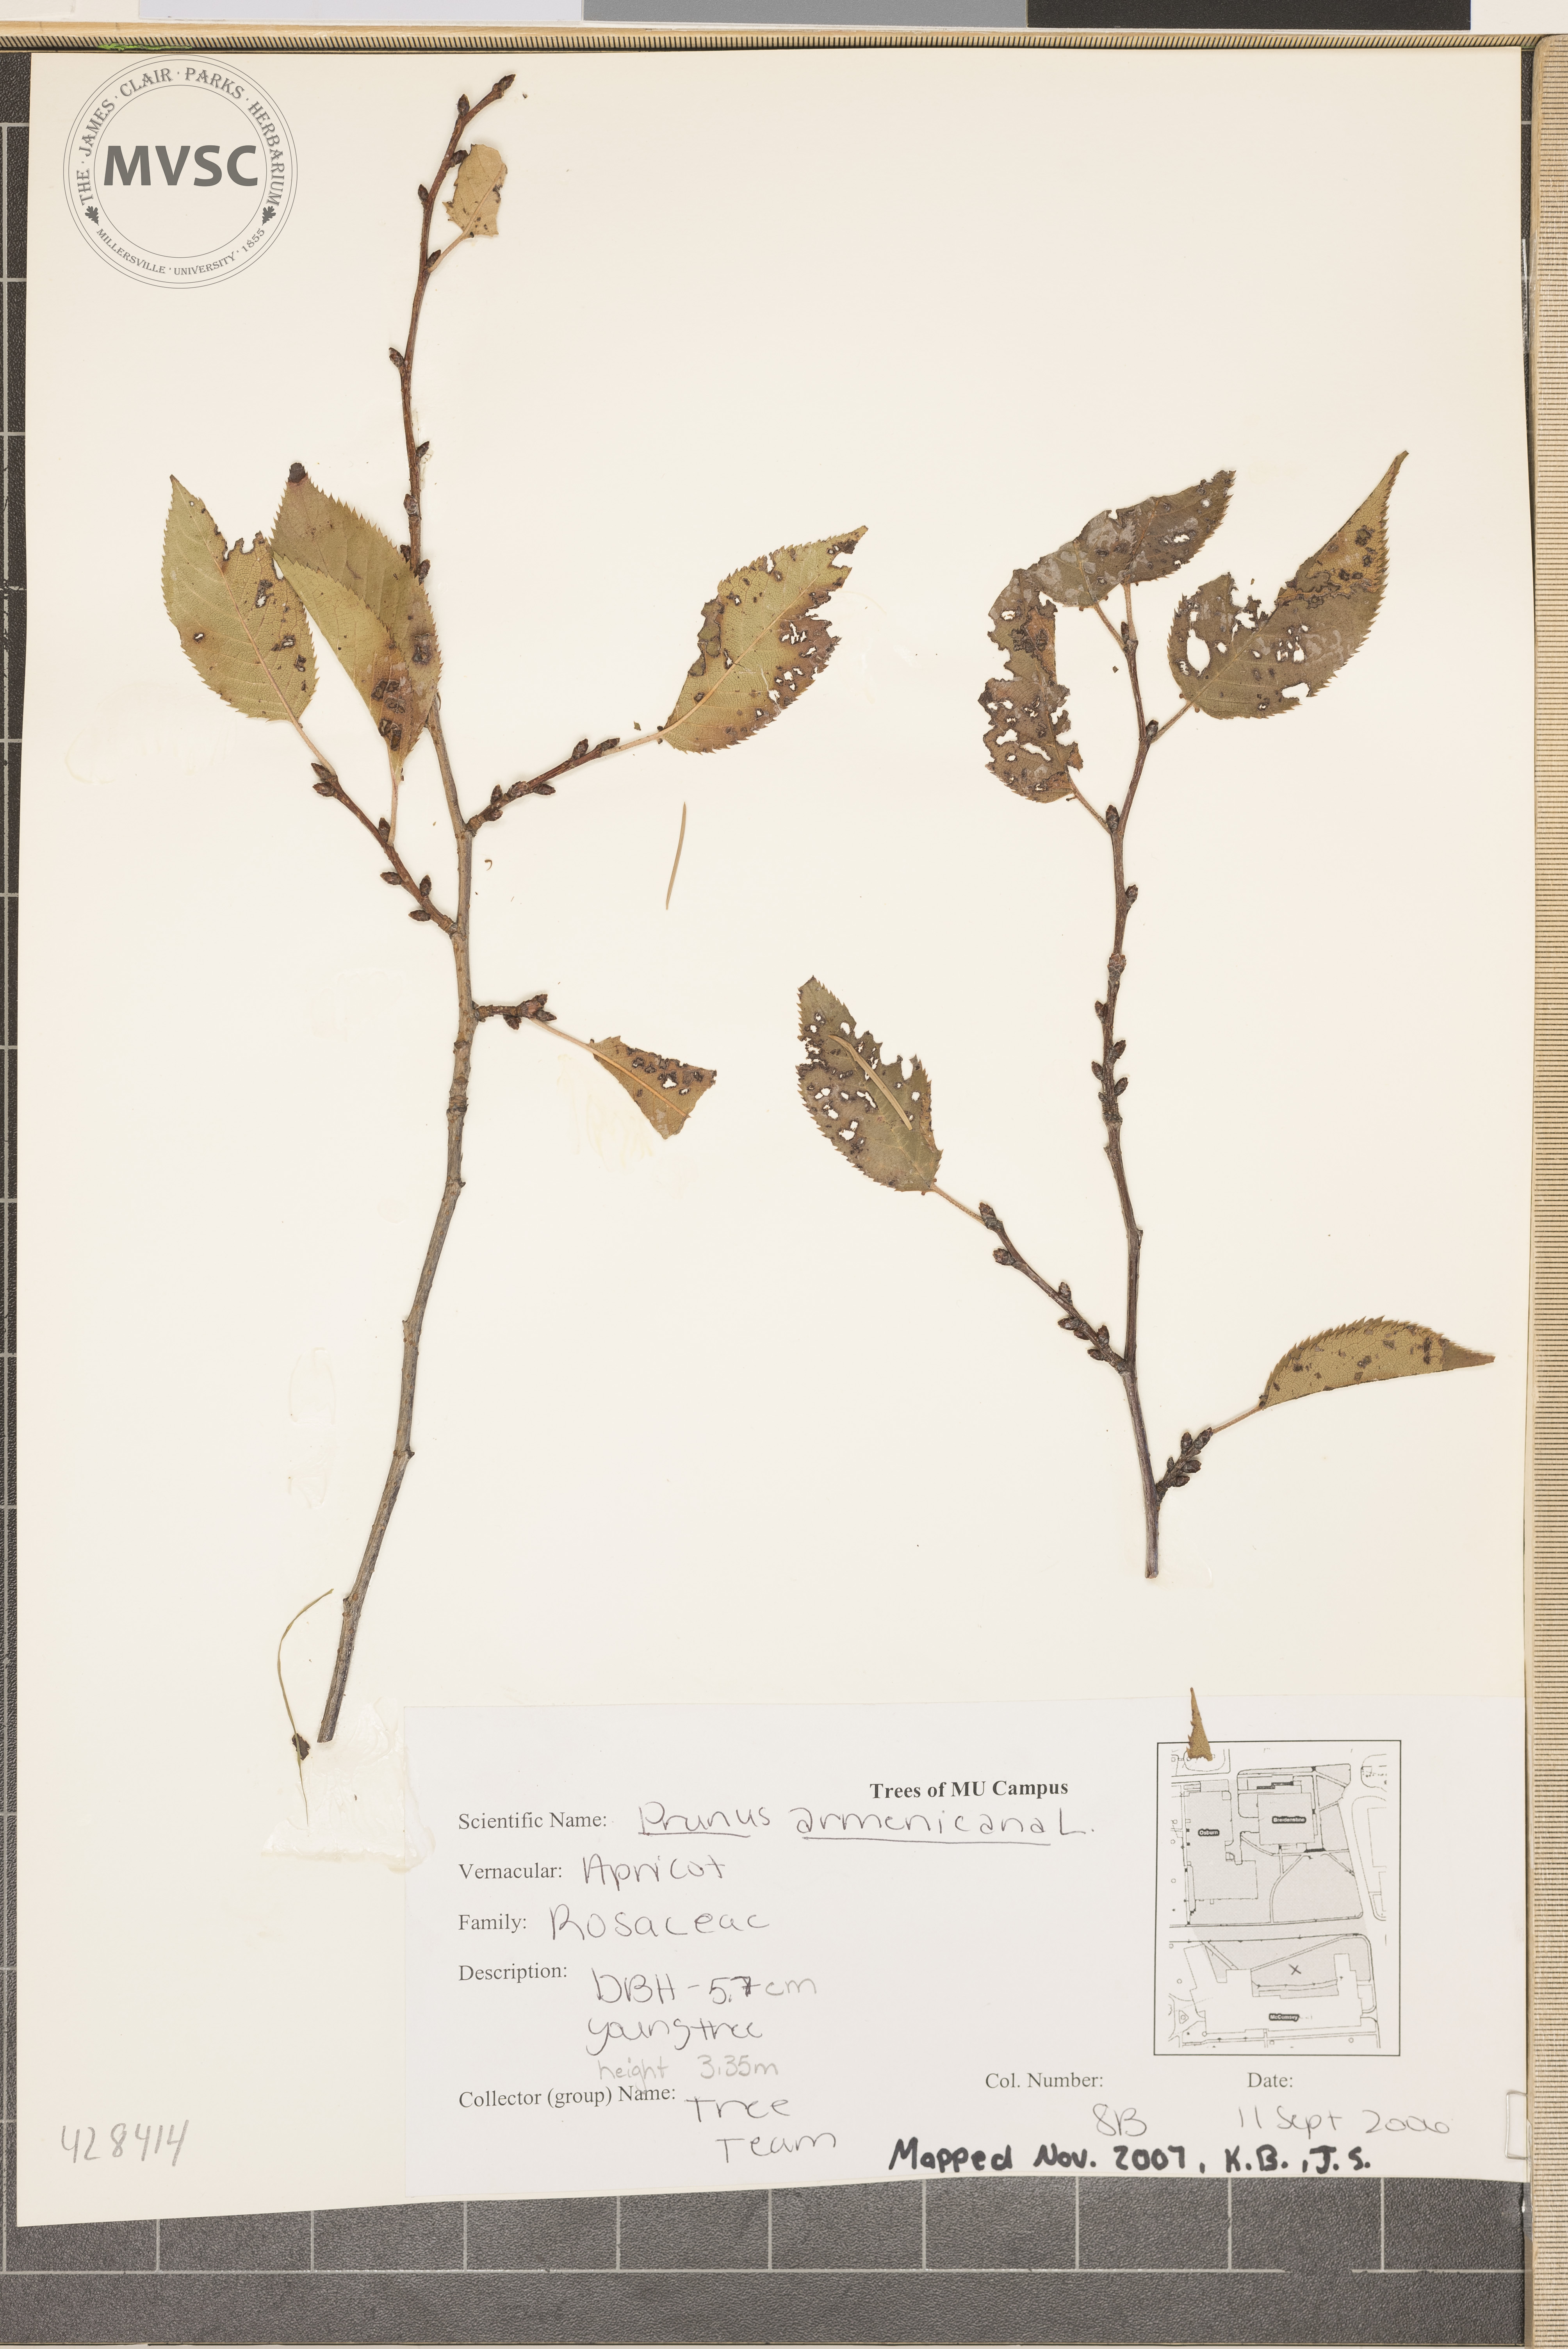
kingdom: Plantae
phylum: Tracheophyta
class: Magnoliopsida
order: Rosales
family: Rosaceae
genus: Prunus
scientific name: Prunus armeniaca
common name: Apricot
